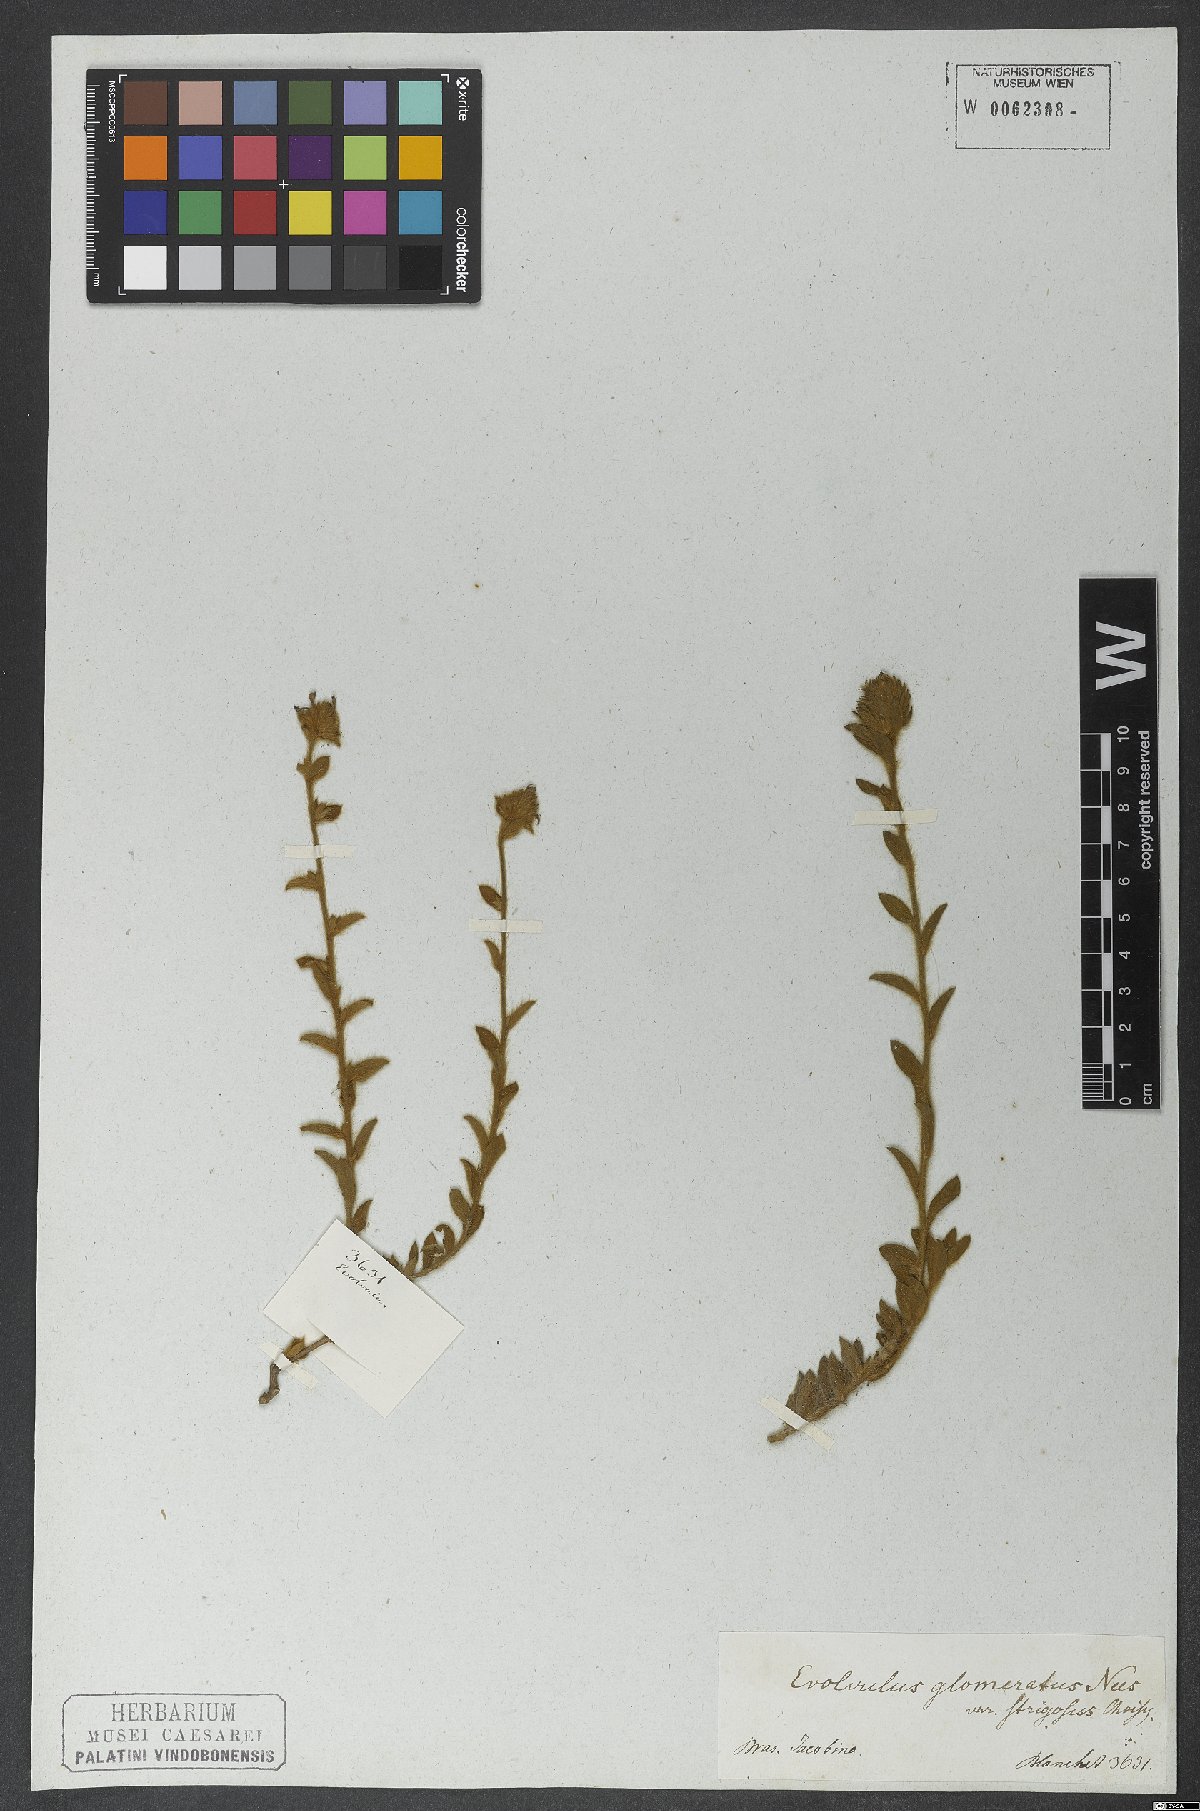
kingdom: Plantae
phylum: Tracheophyta
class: Magnoliopsida
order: Solanales
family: Convolvulaceae
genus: Evolvulus
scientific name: Evolvulus glomeratus
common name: Brazilian dwarf morning-glory
